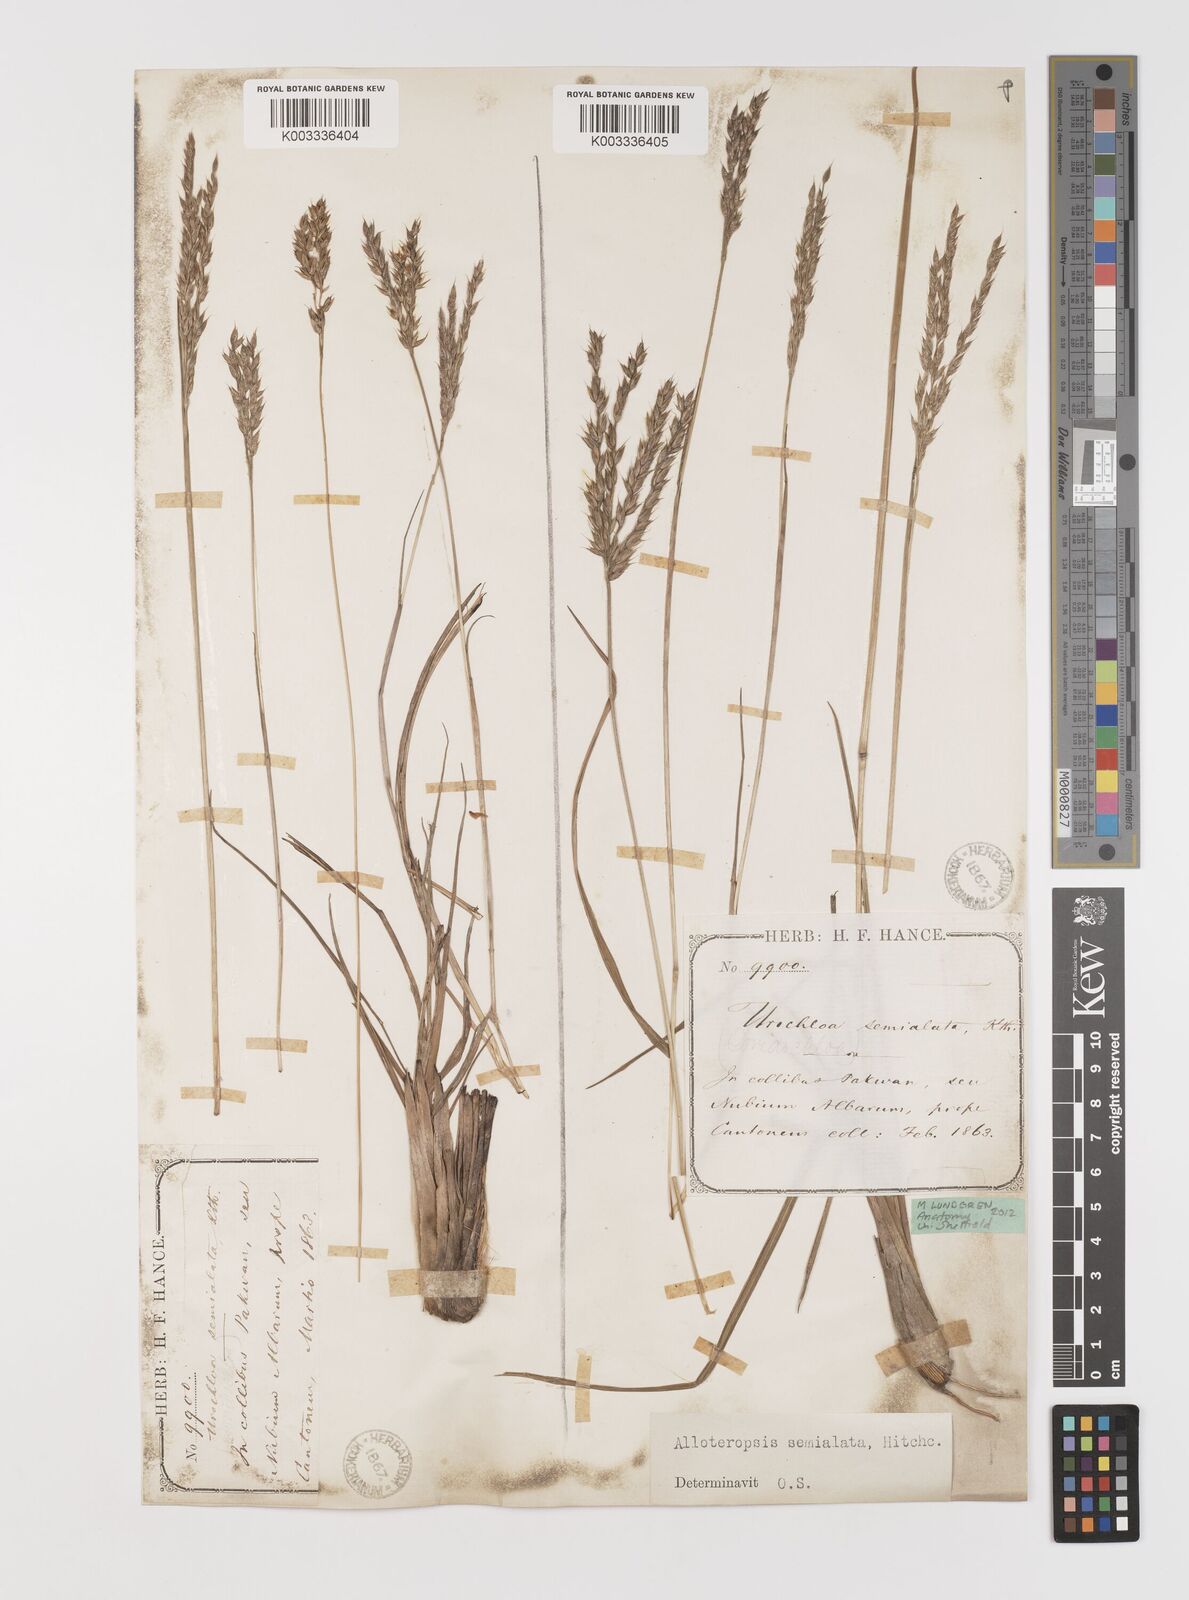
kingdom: Plantae
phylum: Tracheophyta
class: Liliopsida
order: Poales
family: Poaceae
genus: Alloteropsis
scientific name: Alloteropsis semialata
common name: Cockatoo grass
